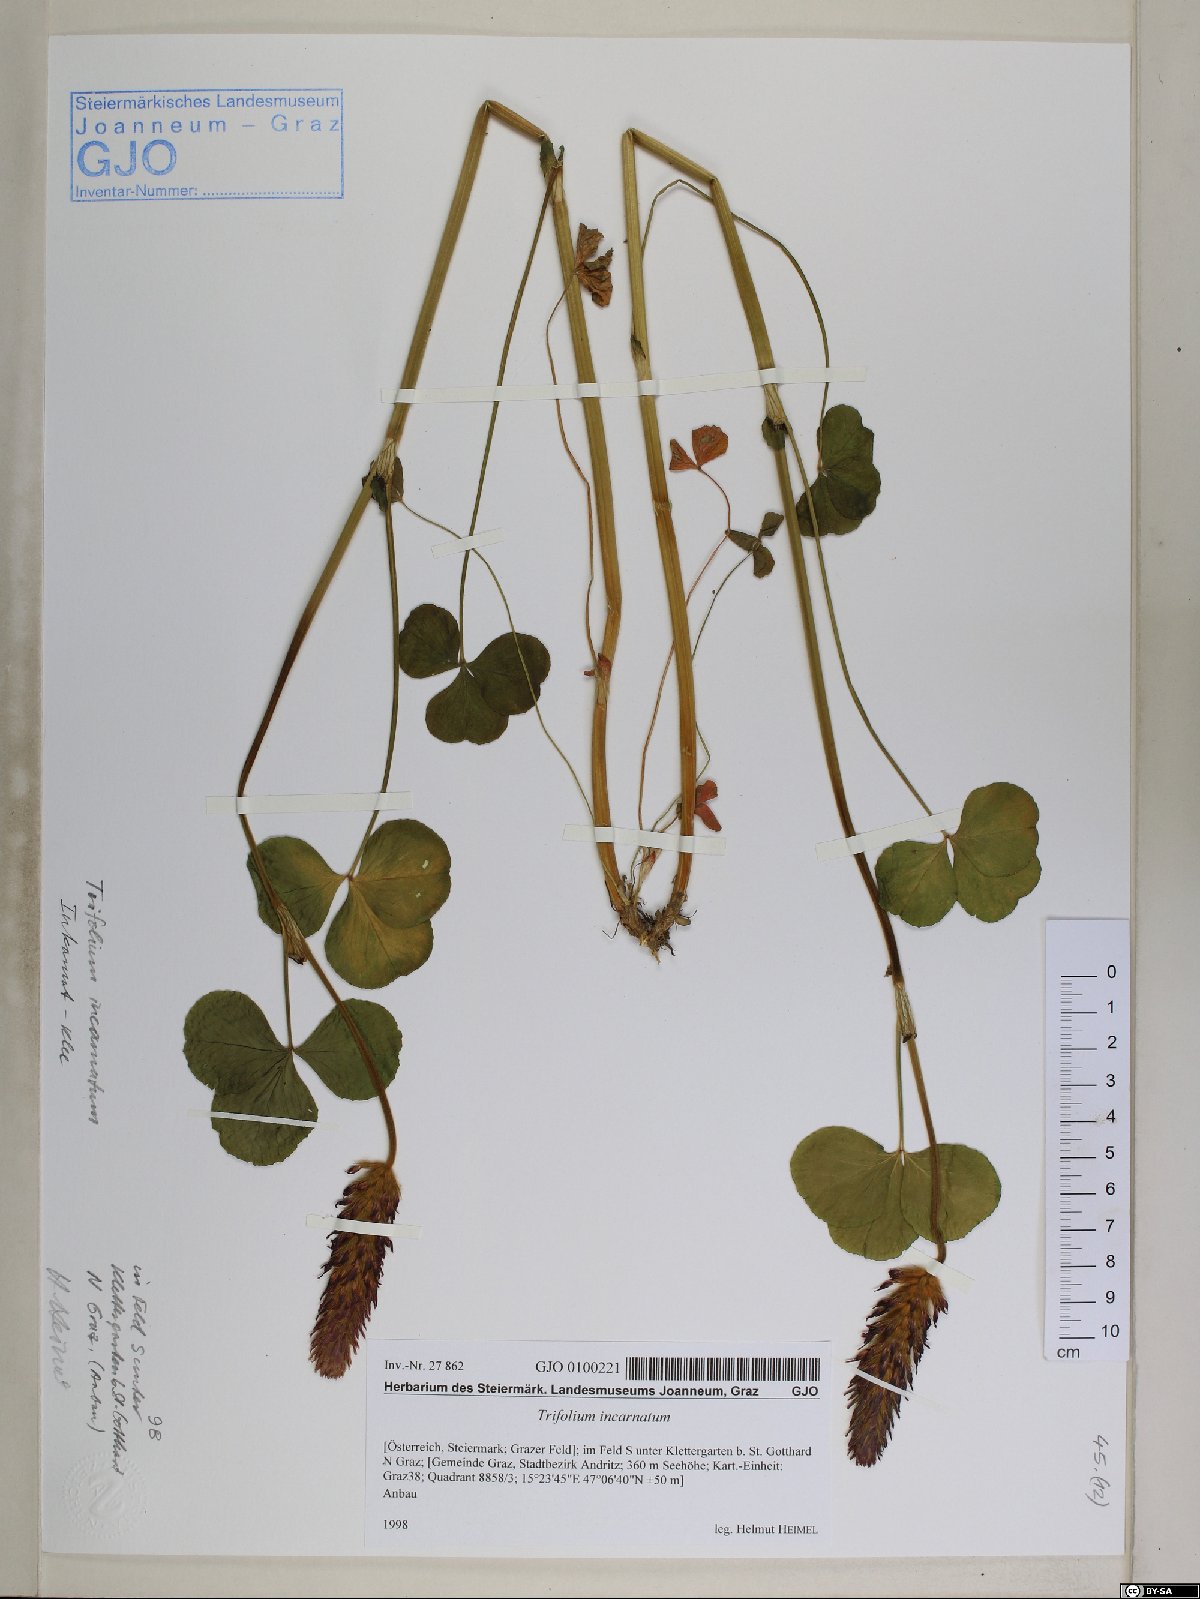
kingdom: Plantae
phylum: Tracheophyta
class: Magnoliopsida
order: Fabales
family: Fabaceae
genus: Trifolium
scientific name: Trifolium incarnatum
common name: Crimson clover
